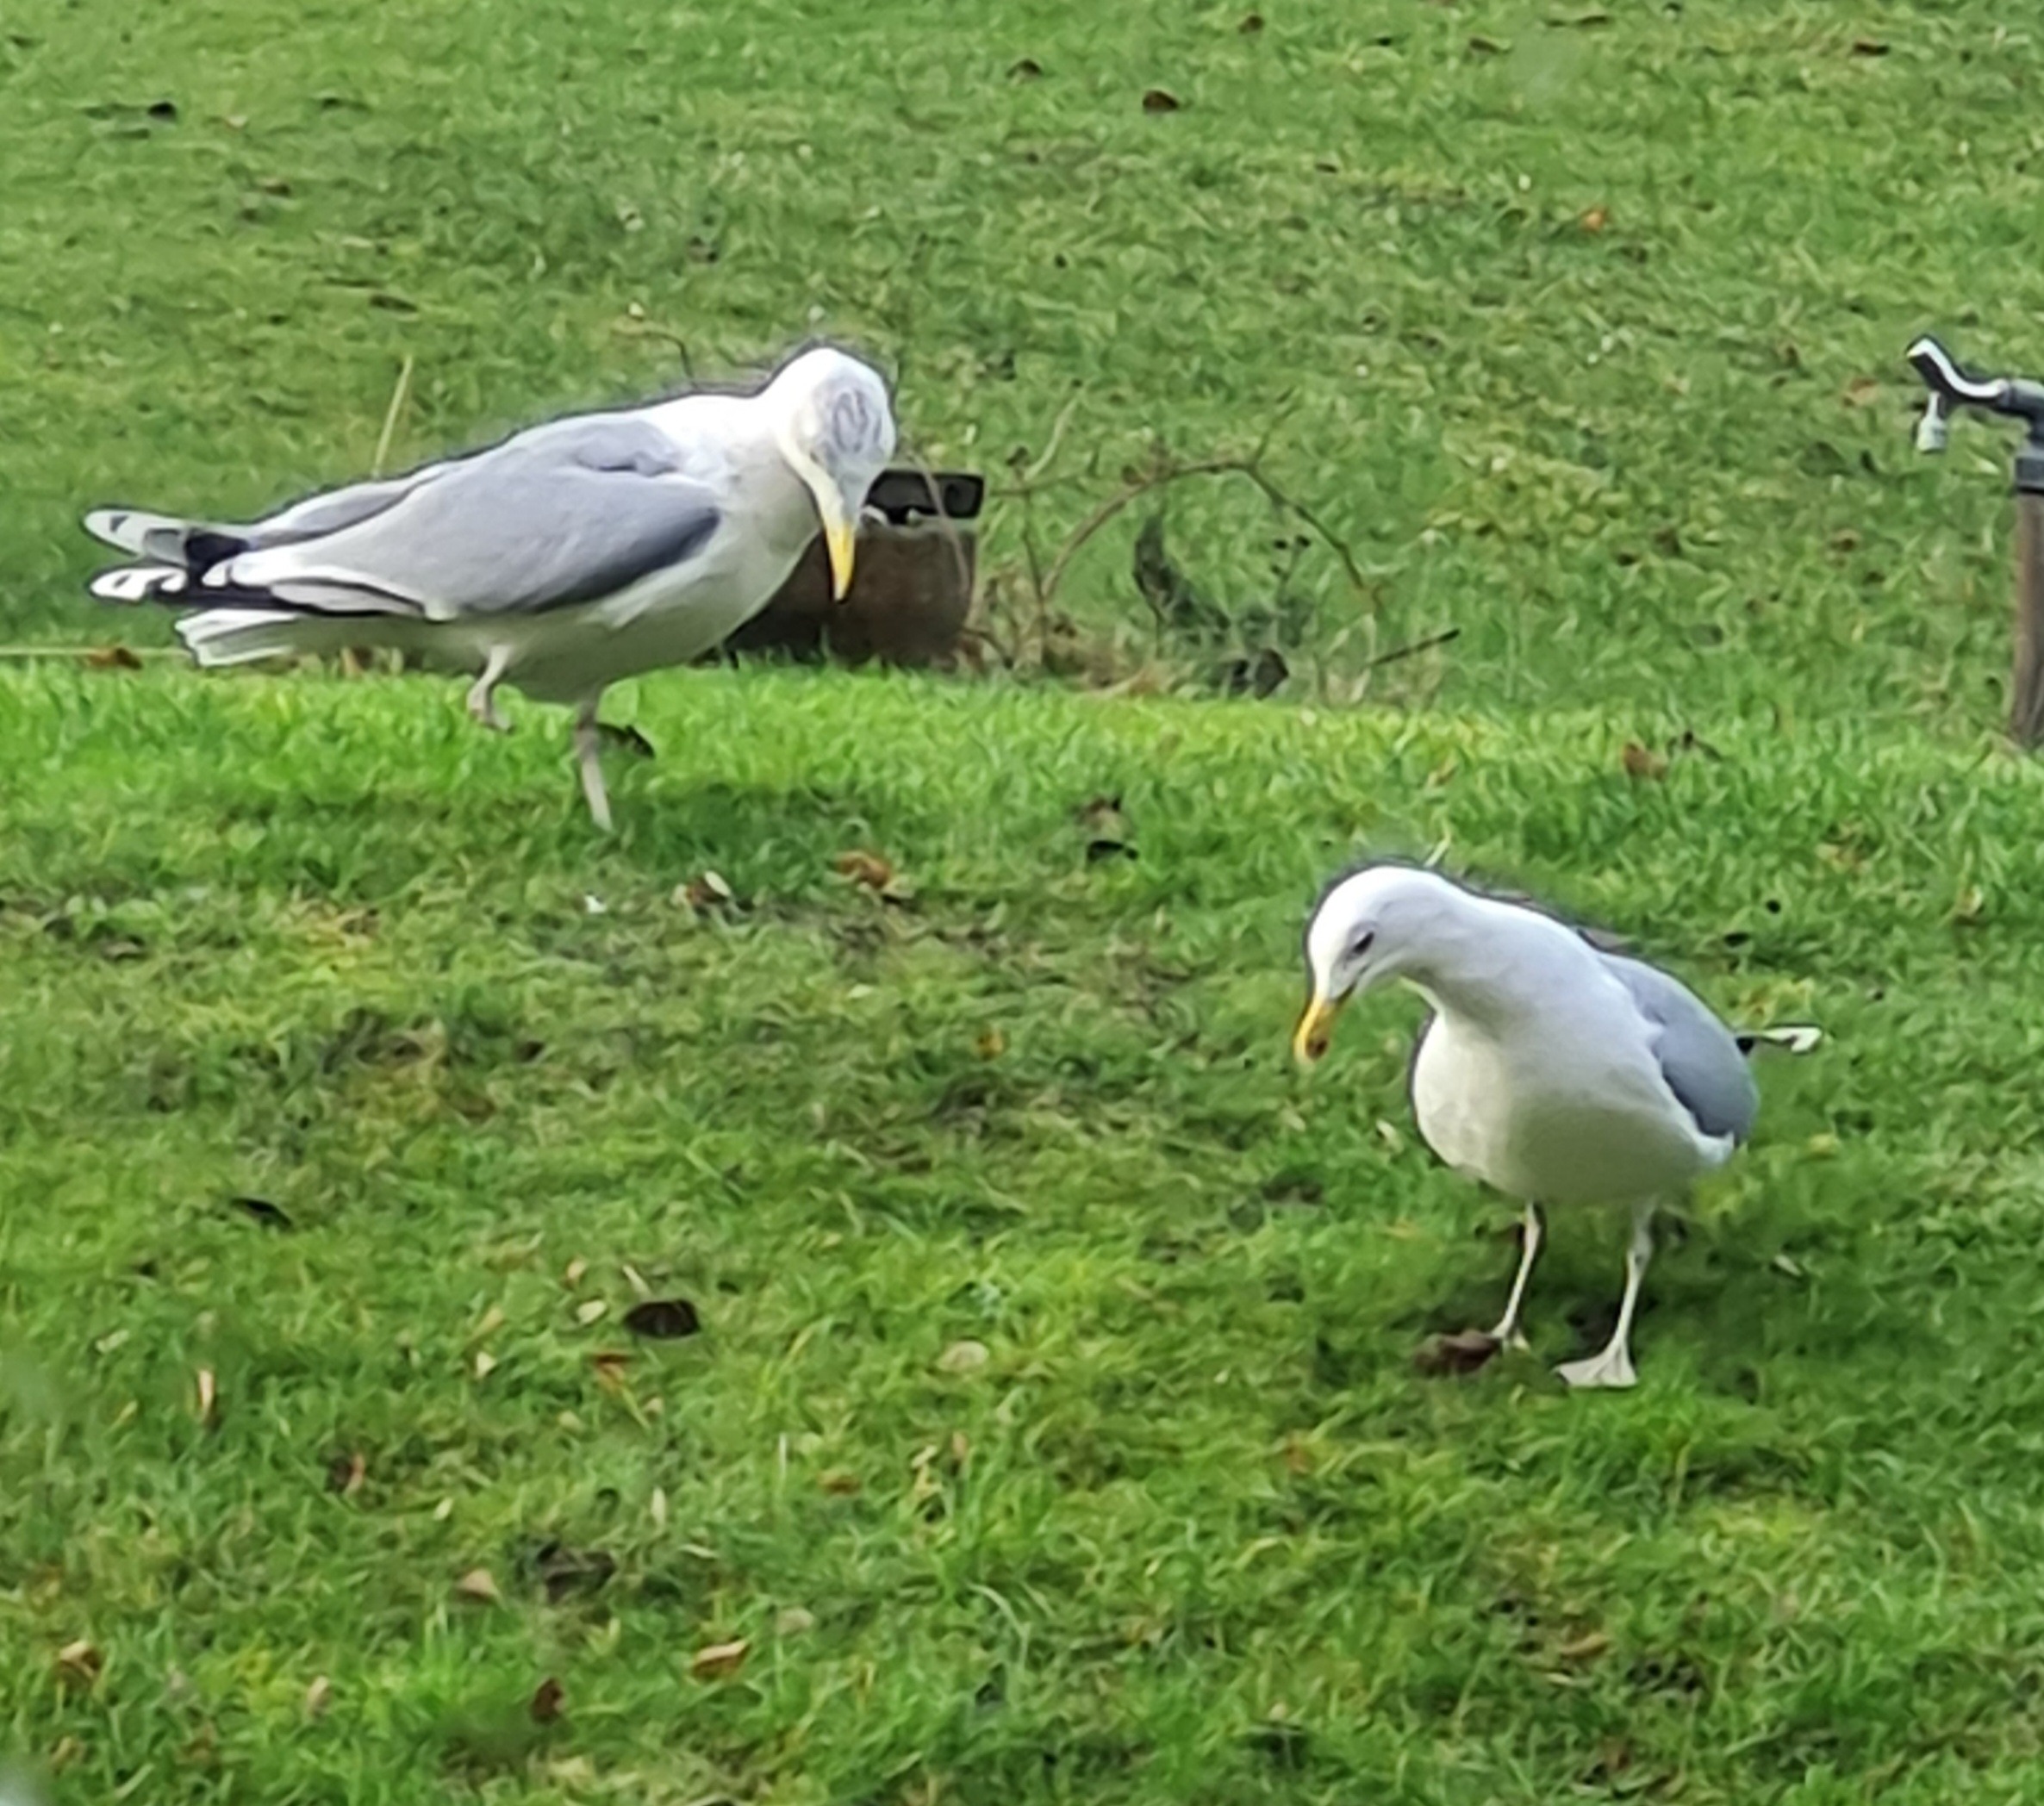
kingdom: Animalia
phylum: Chordata
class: Aves
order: Charadriiformes
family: Laridae
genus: Larus
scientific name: Larus argentatus
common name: Sølvmåge
